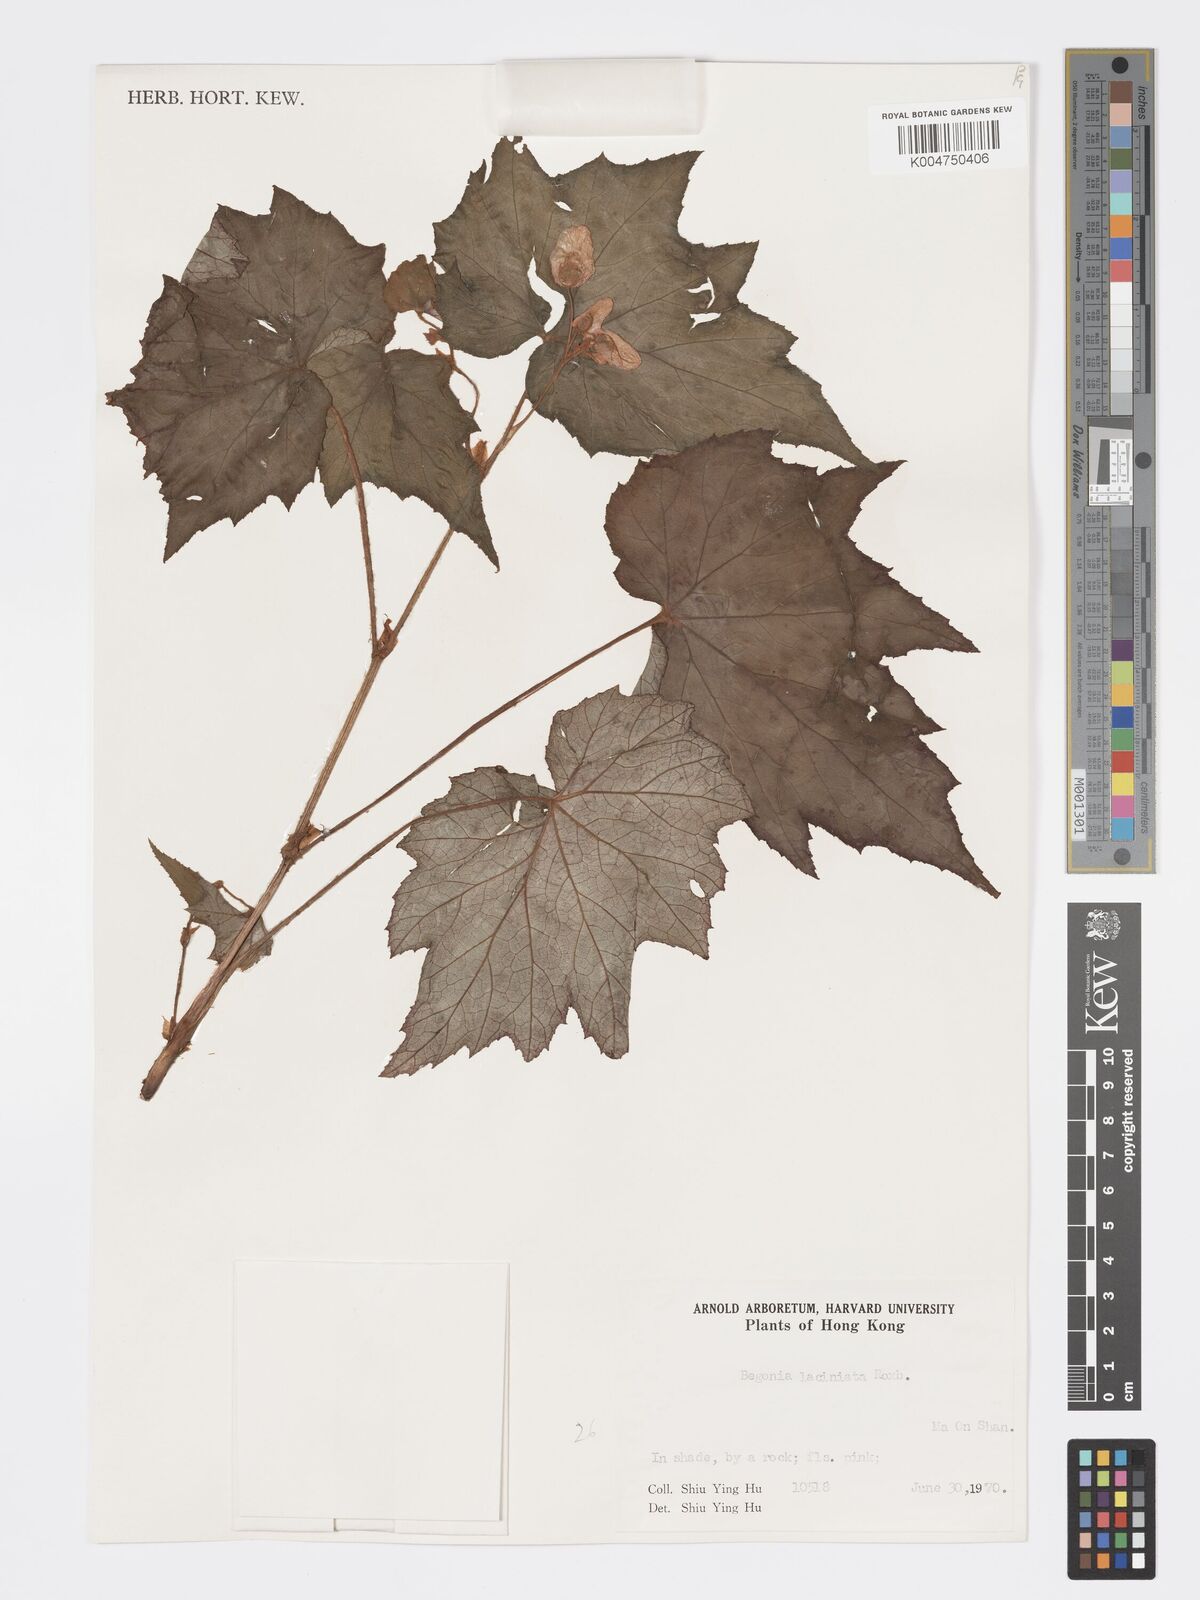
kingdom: Plantae
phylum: Tracheophyta
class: Magnoliopsida
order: Cucurbitales
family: Begoniaceae
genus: Begonia
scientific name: Begonia
